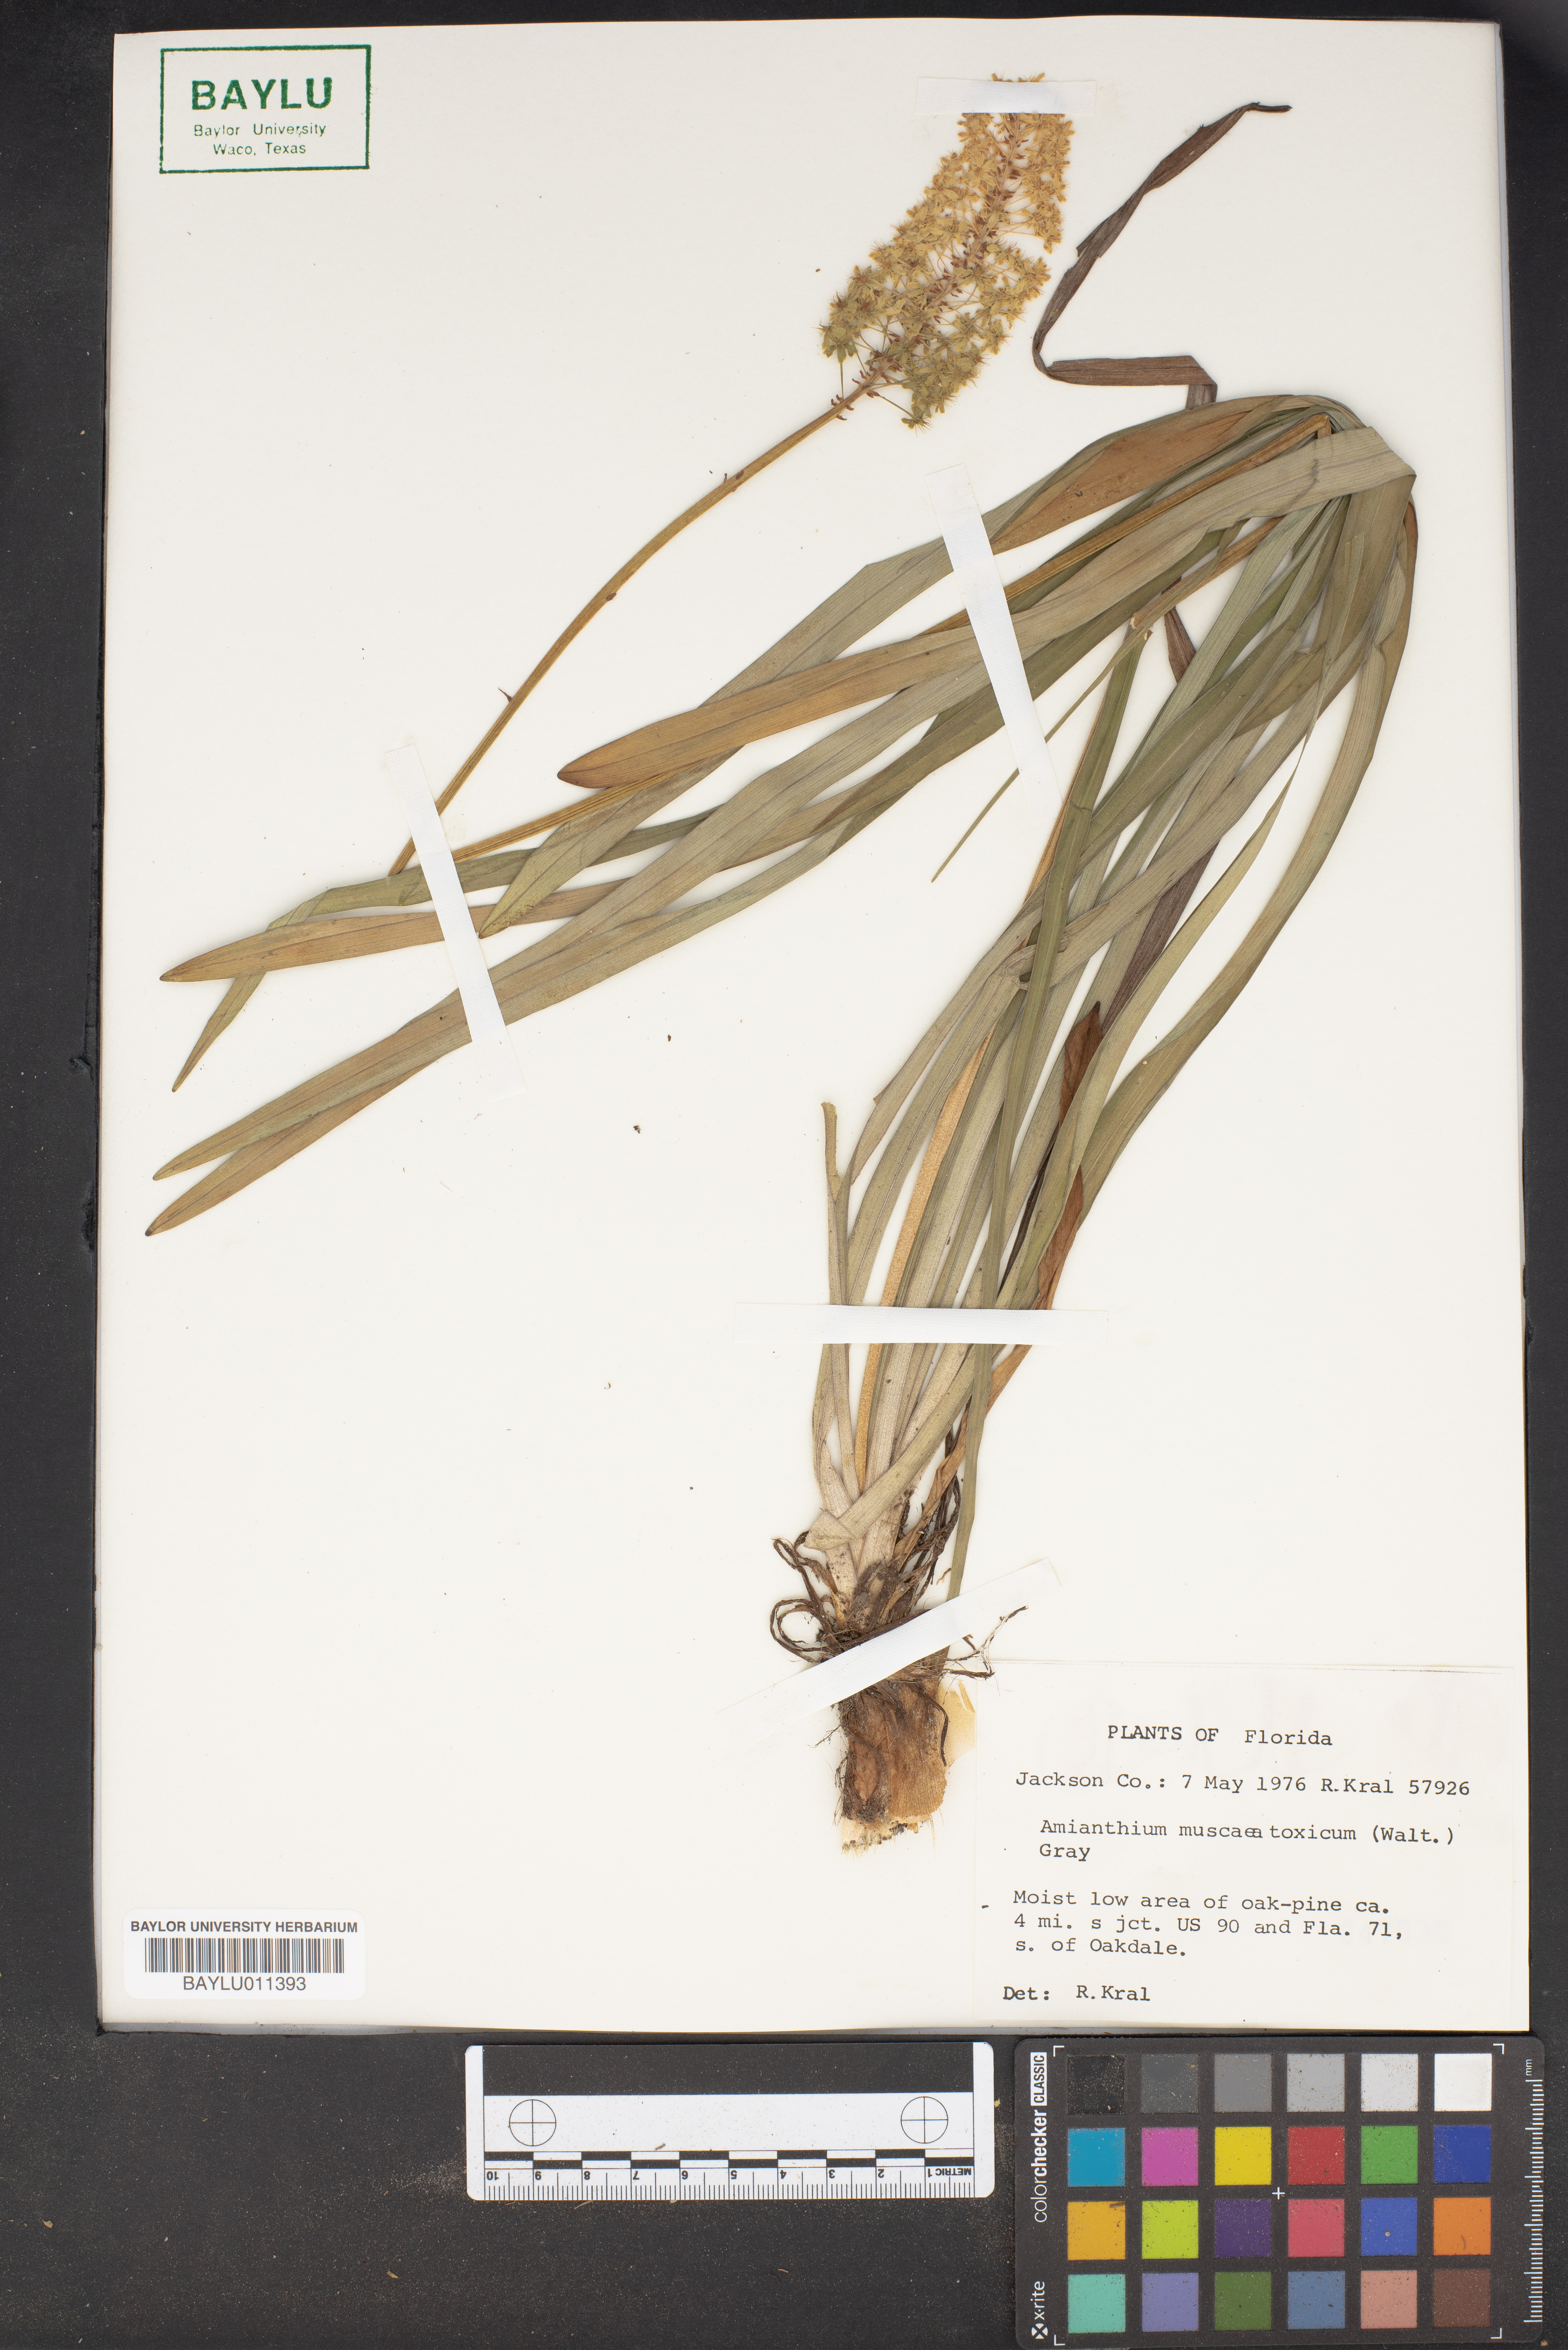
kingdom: Plantae
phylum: Tracheophyta
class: Liliopsida
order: Liliales
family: Melanthiaceae
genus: Amianthium
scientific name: Amianthium muscitoxicum
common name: Fly-poison
